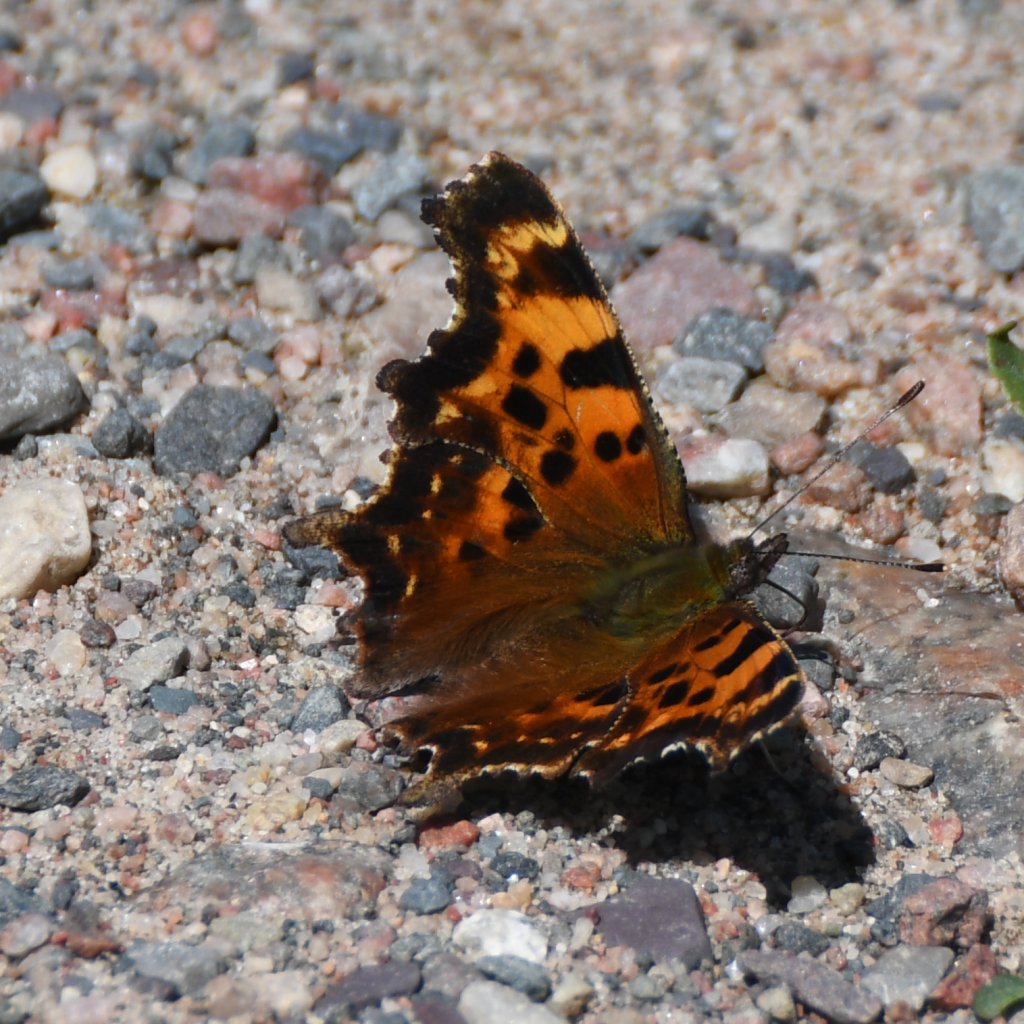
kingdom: Animalia
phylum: Arthropoda
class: Insecta
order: Lepidoptera
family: Nymphalidae
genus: Polygonia
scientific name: Polygonia faunus
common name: Green Comma
